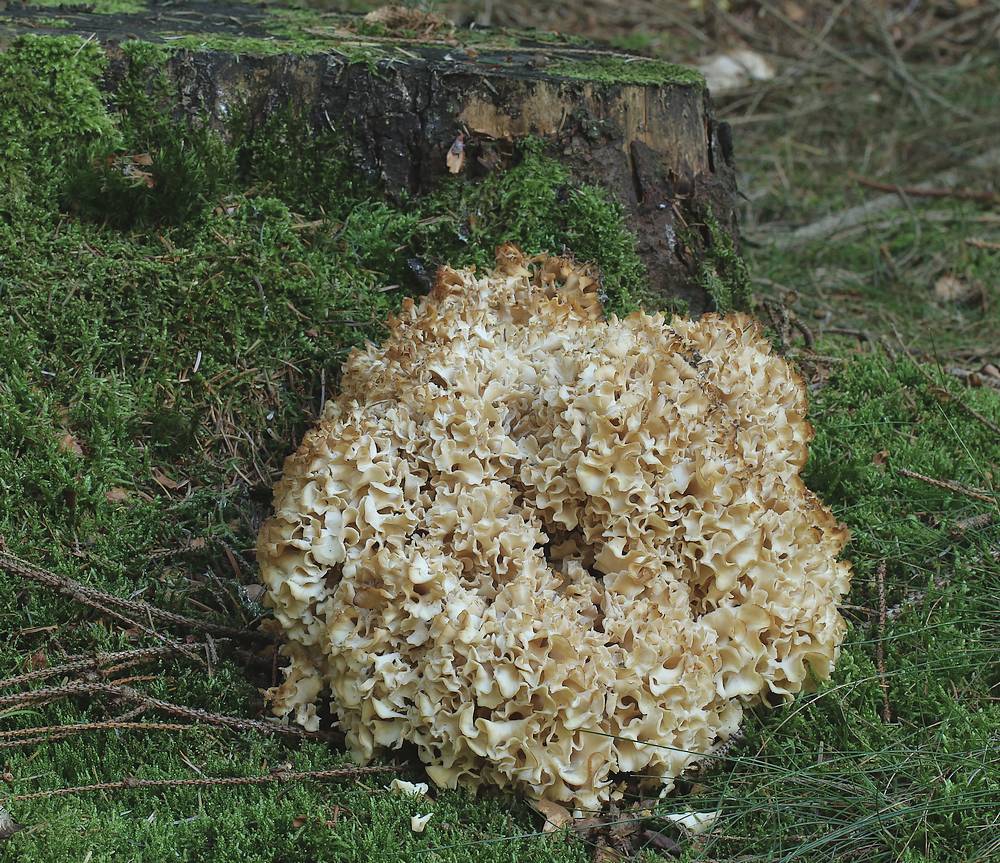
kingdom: Fungi
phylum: Basidiomycota
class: Agaricomycetes
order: Polyporales
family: Sparassidaceae
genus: Sparassis
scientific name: Sparassis crispa
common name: kruset blomkålssvamp
